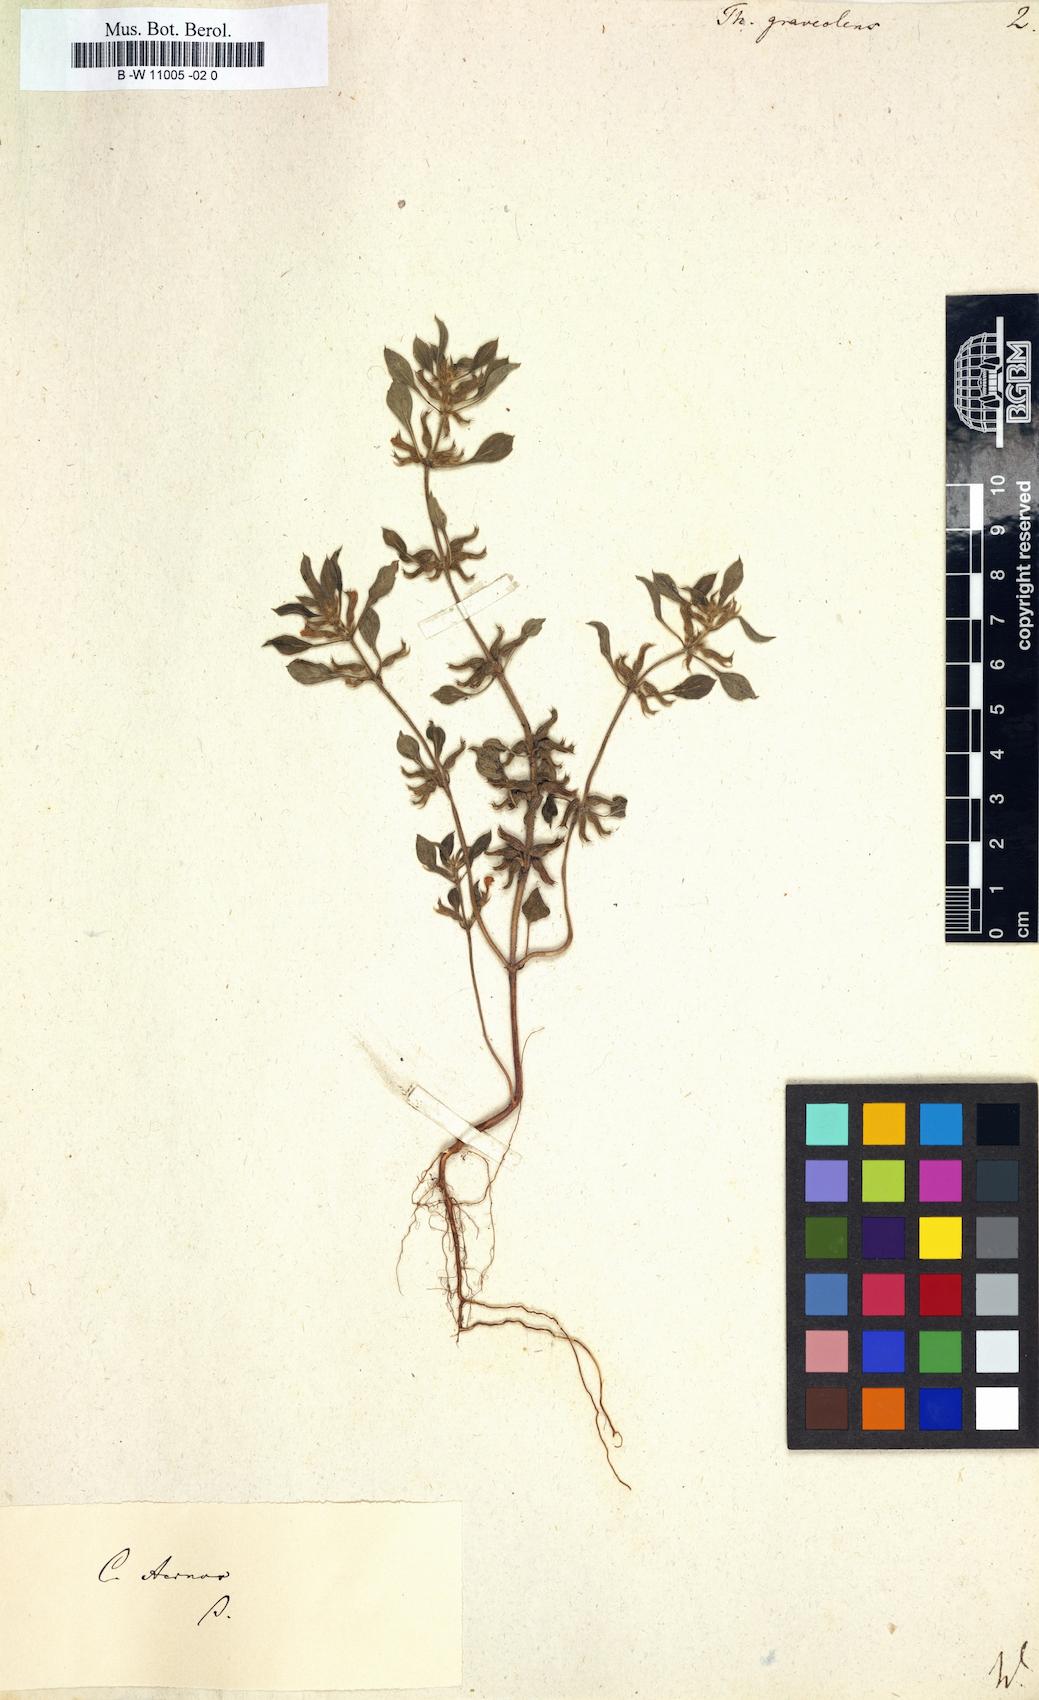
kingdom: Plantae
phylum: Tracheophyta
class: Magnoliopsida
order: Lamiales
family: Lamiaceae
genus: Thymus
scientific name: Thymus graveolens
